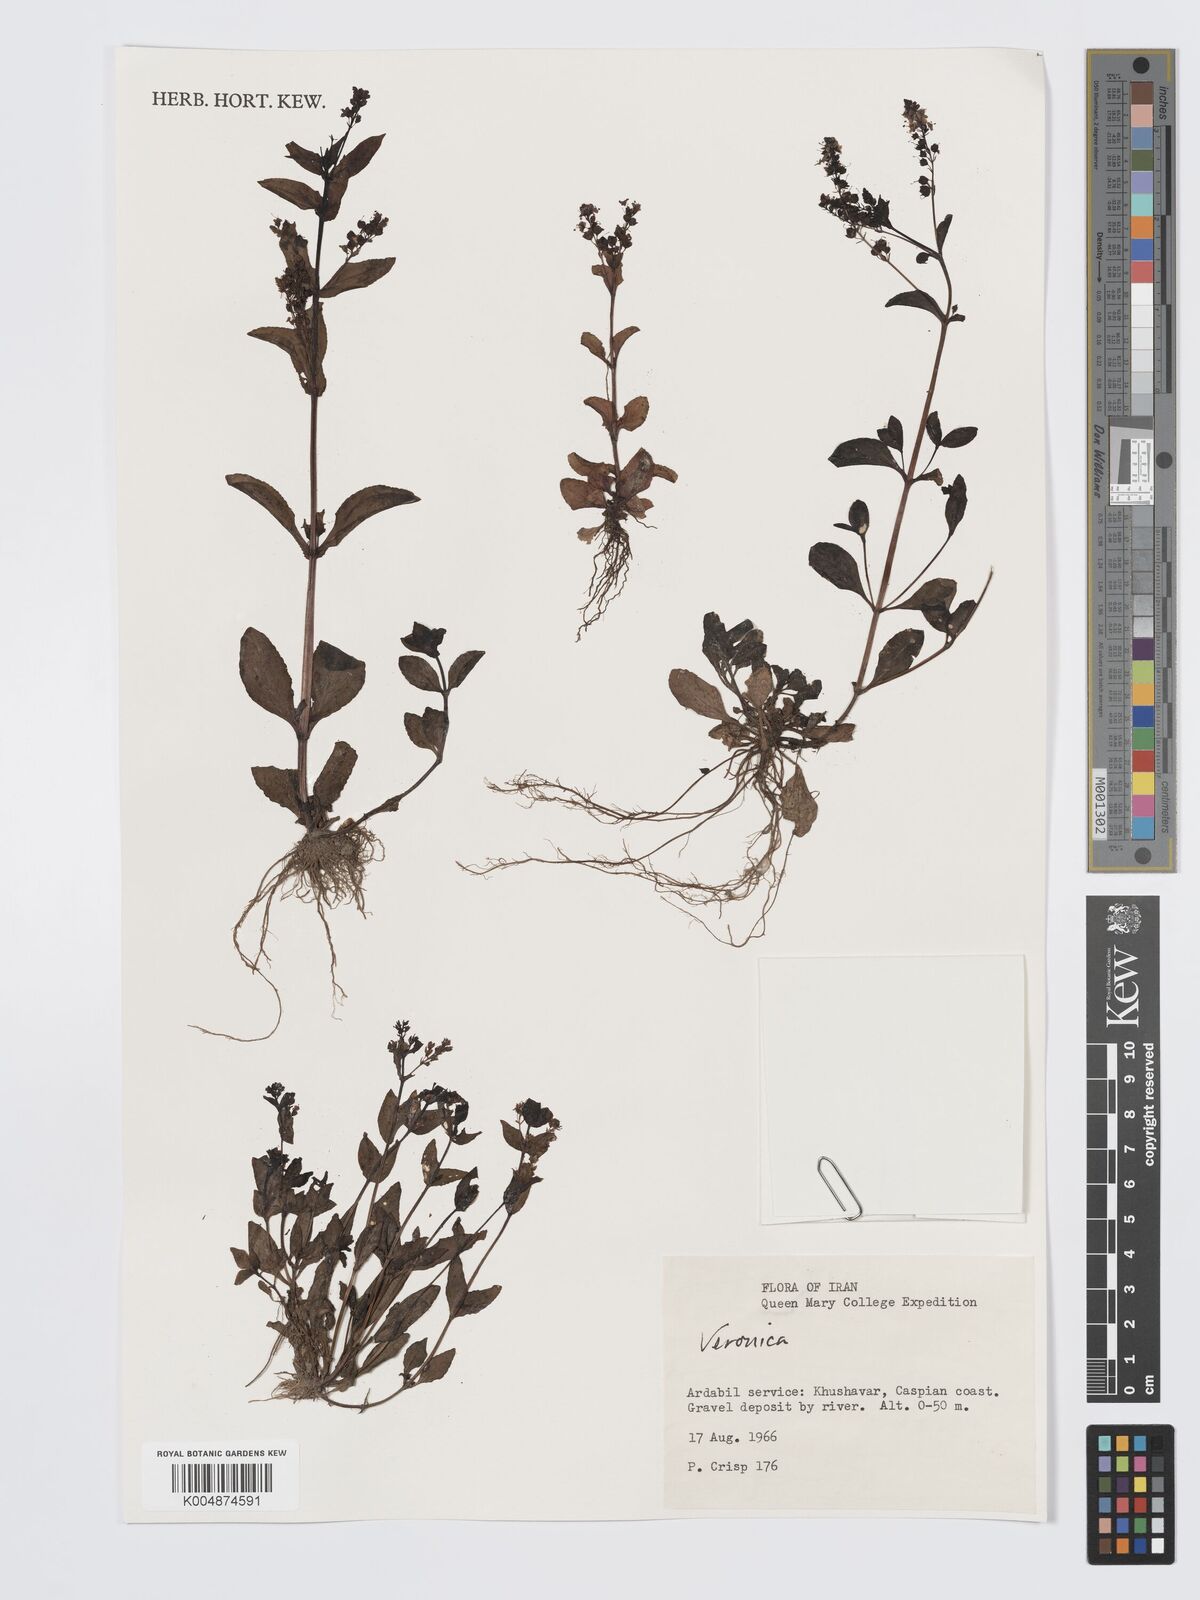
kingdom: Plantae
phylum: Tracheophyta
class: Magnoliopsida
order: Lamiales
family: Plantaginaceae
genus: Veronica
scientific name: Veronica
